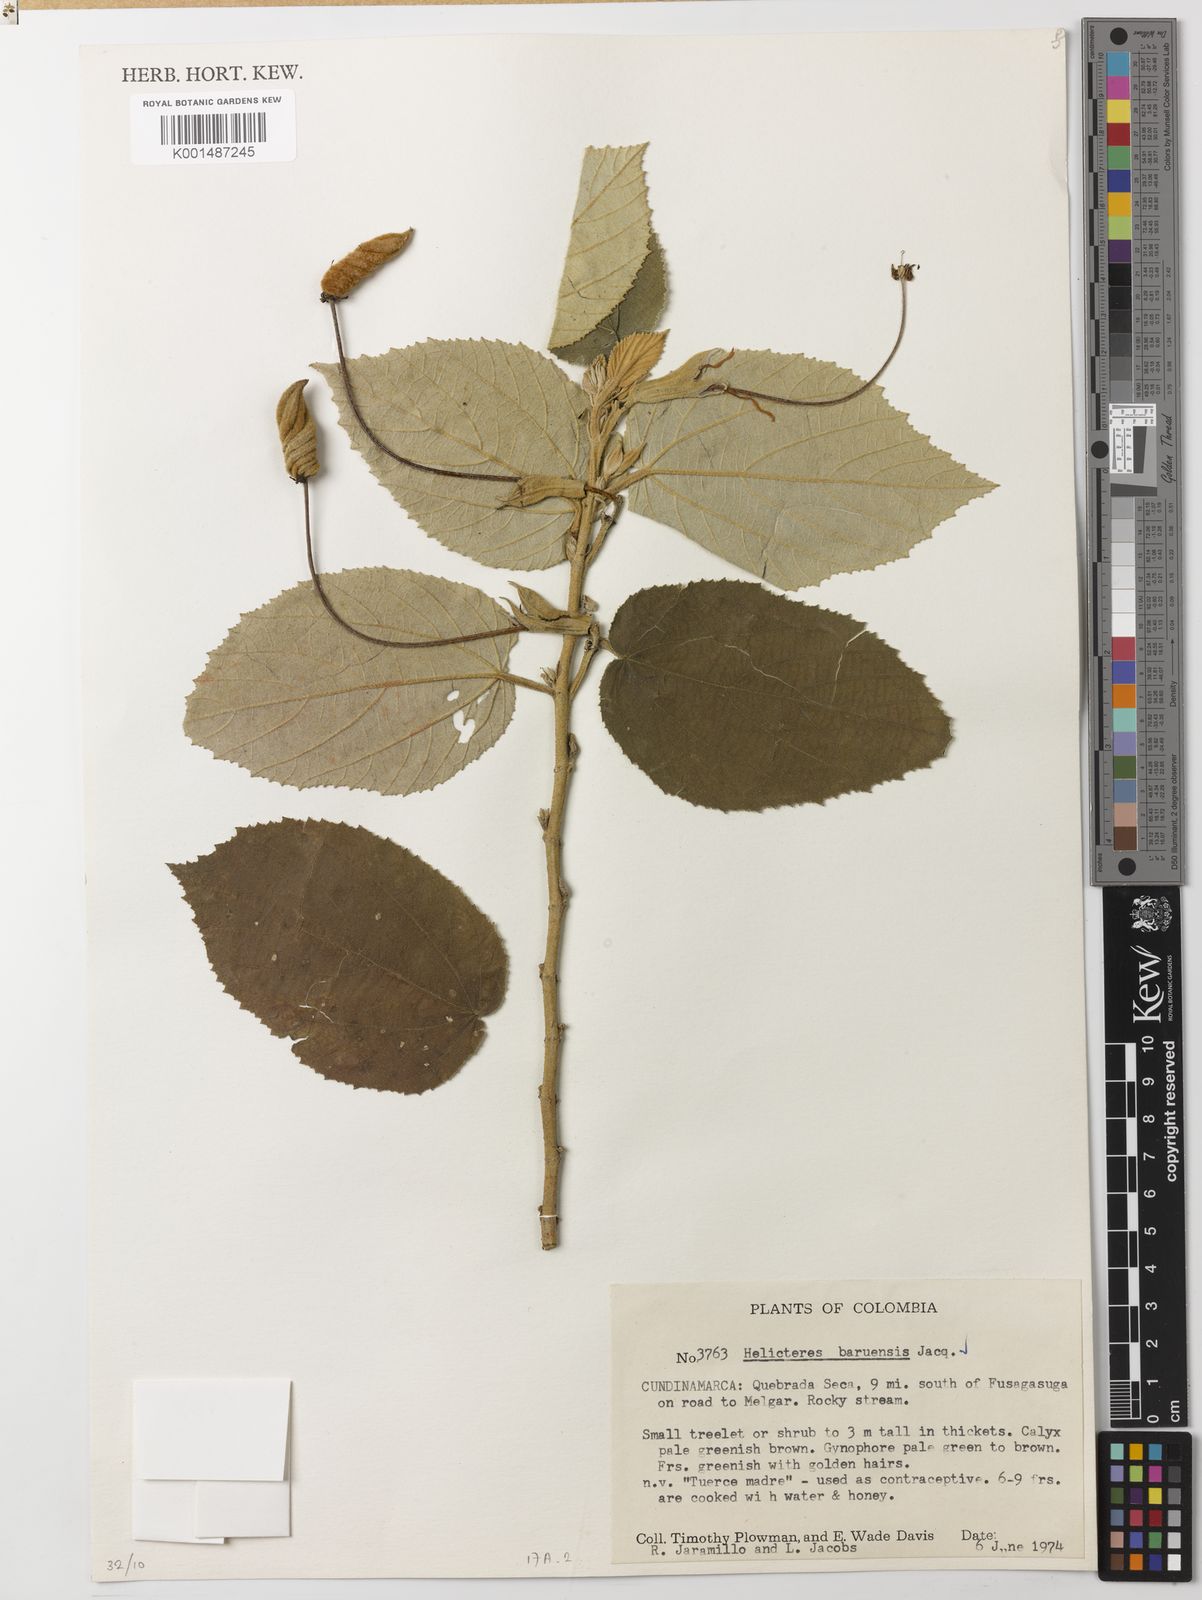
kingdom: Plantae
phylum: Tracheophyta
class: Magnoliopsida
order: Malvales
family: Malvaceae
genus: Helicteres
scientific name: Helicteres baruensis
